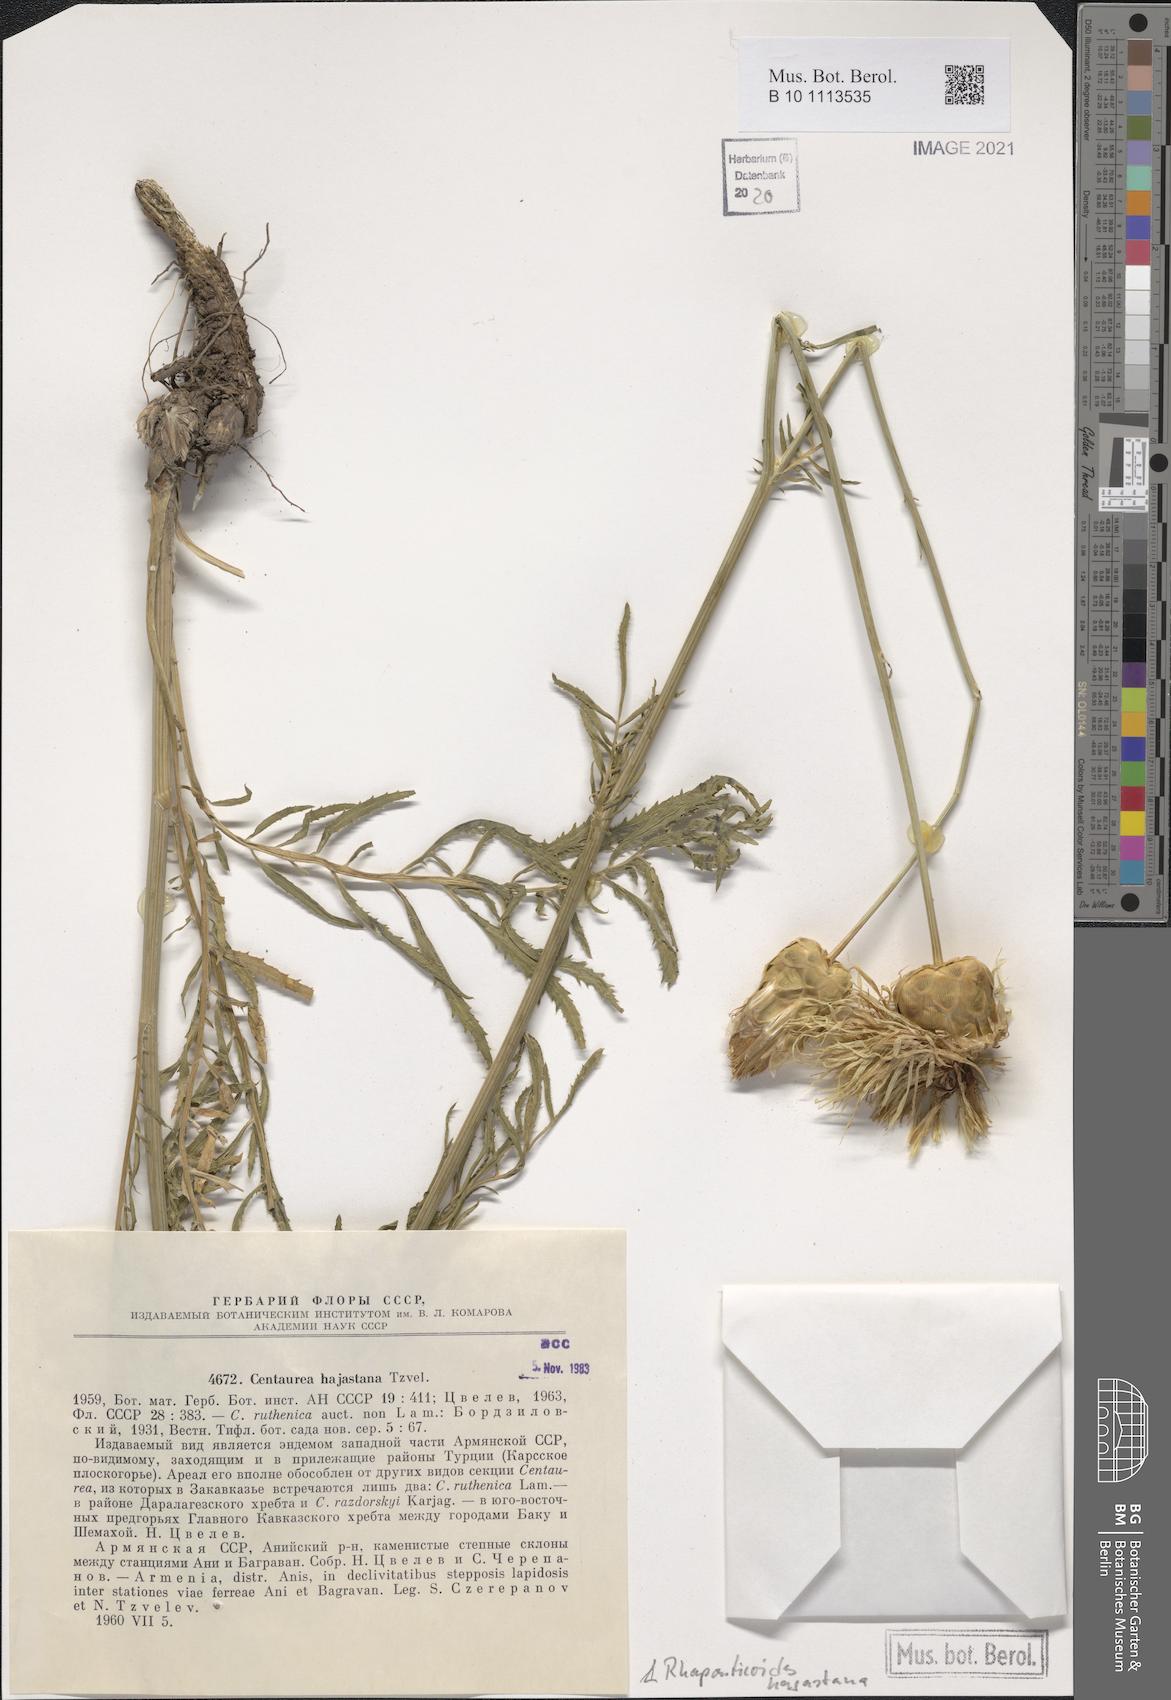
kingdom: Plantae
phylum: Tracheophyta
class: Magnoliopsida
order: Asterales
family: Asteraceae
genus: Rhaponticoides
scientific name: Rhaponticoides hajastana
